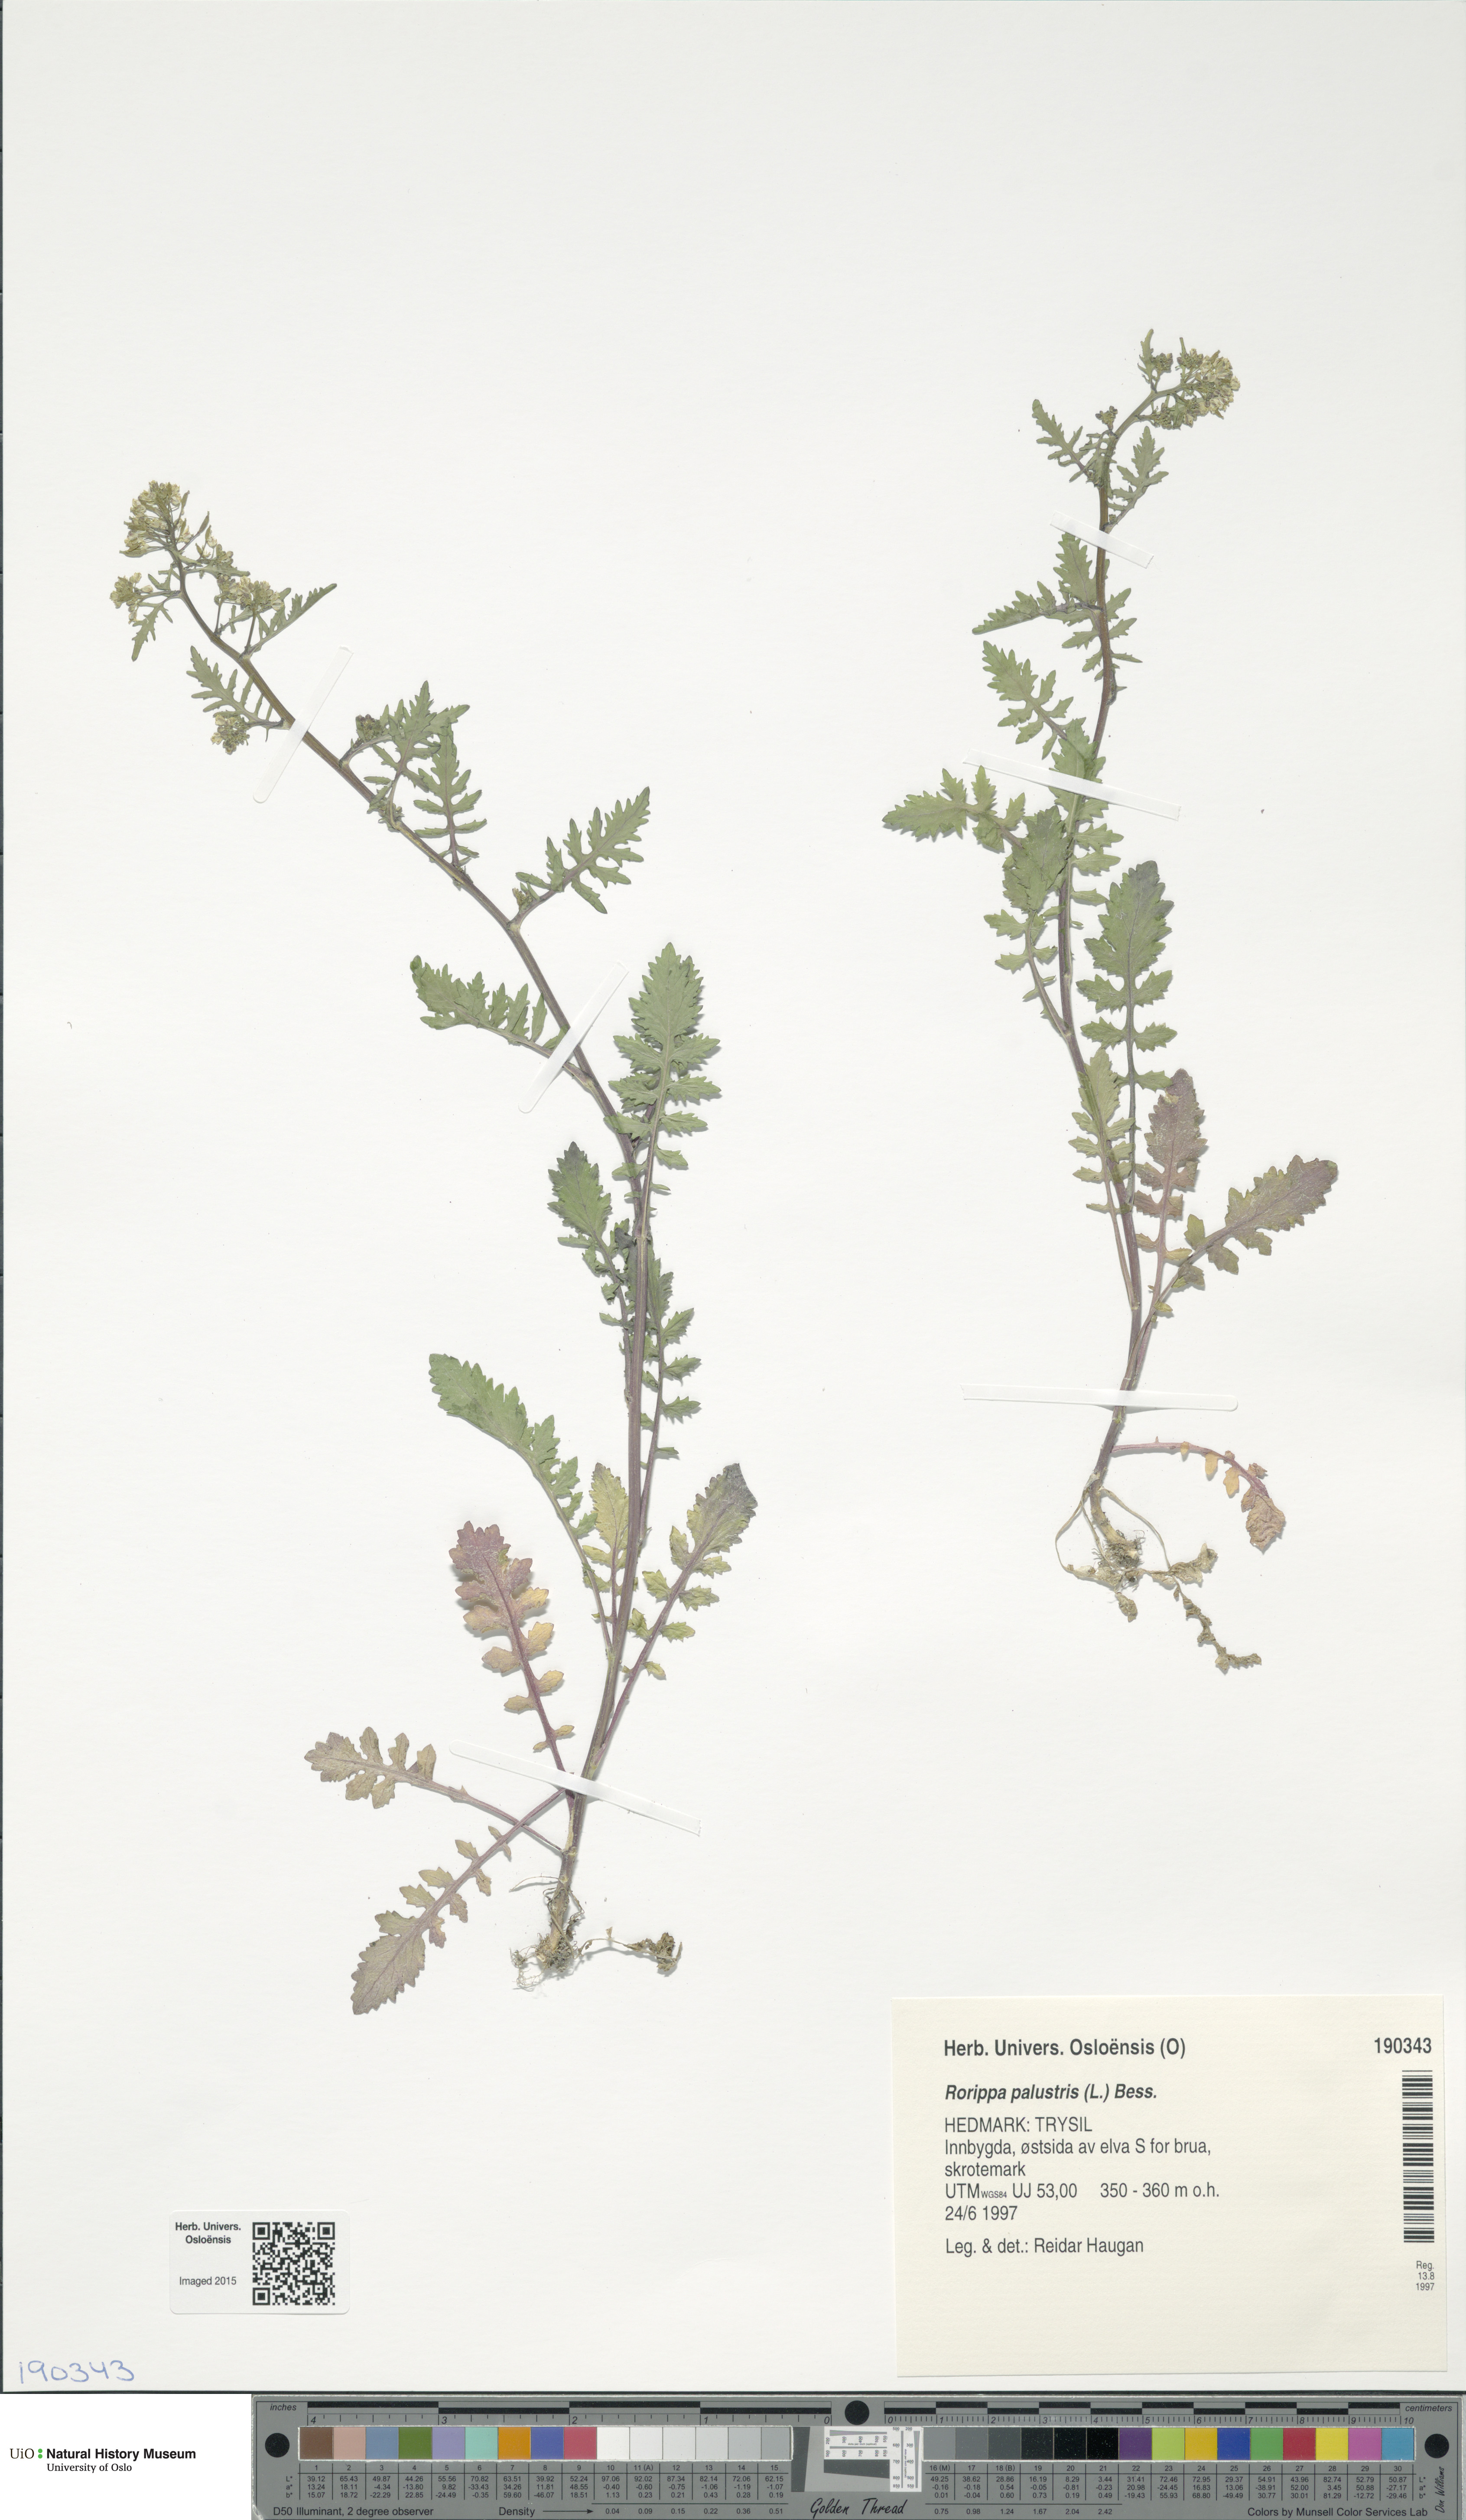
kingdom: Plantae
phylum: Tracheophyta
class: Magnoliopsida
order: Brassicales
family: Brassicaceae
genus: Rorippa
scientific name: Rorippa palustris
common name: Marsh yellow-cress
